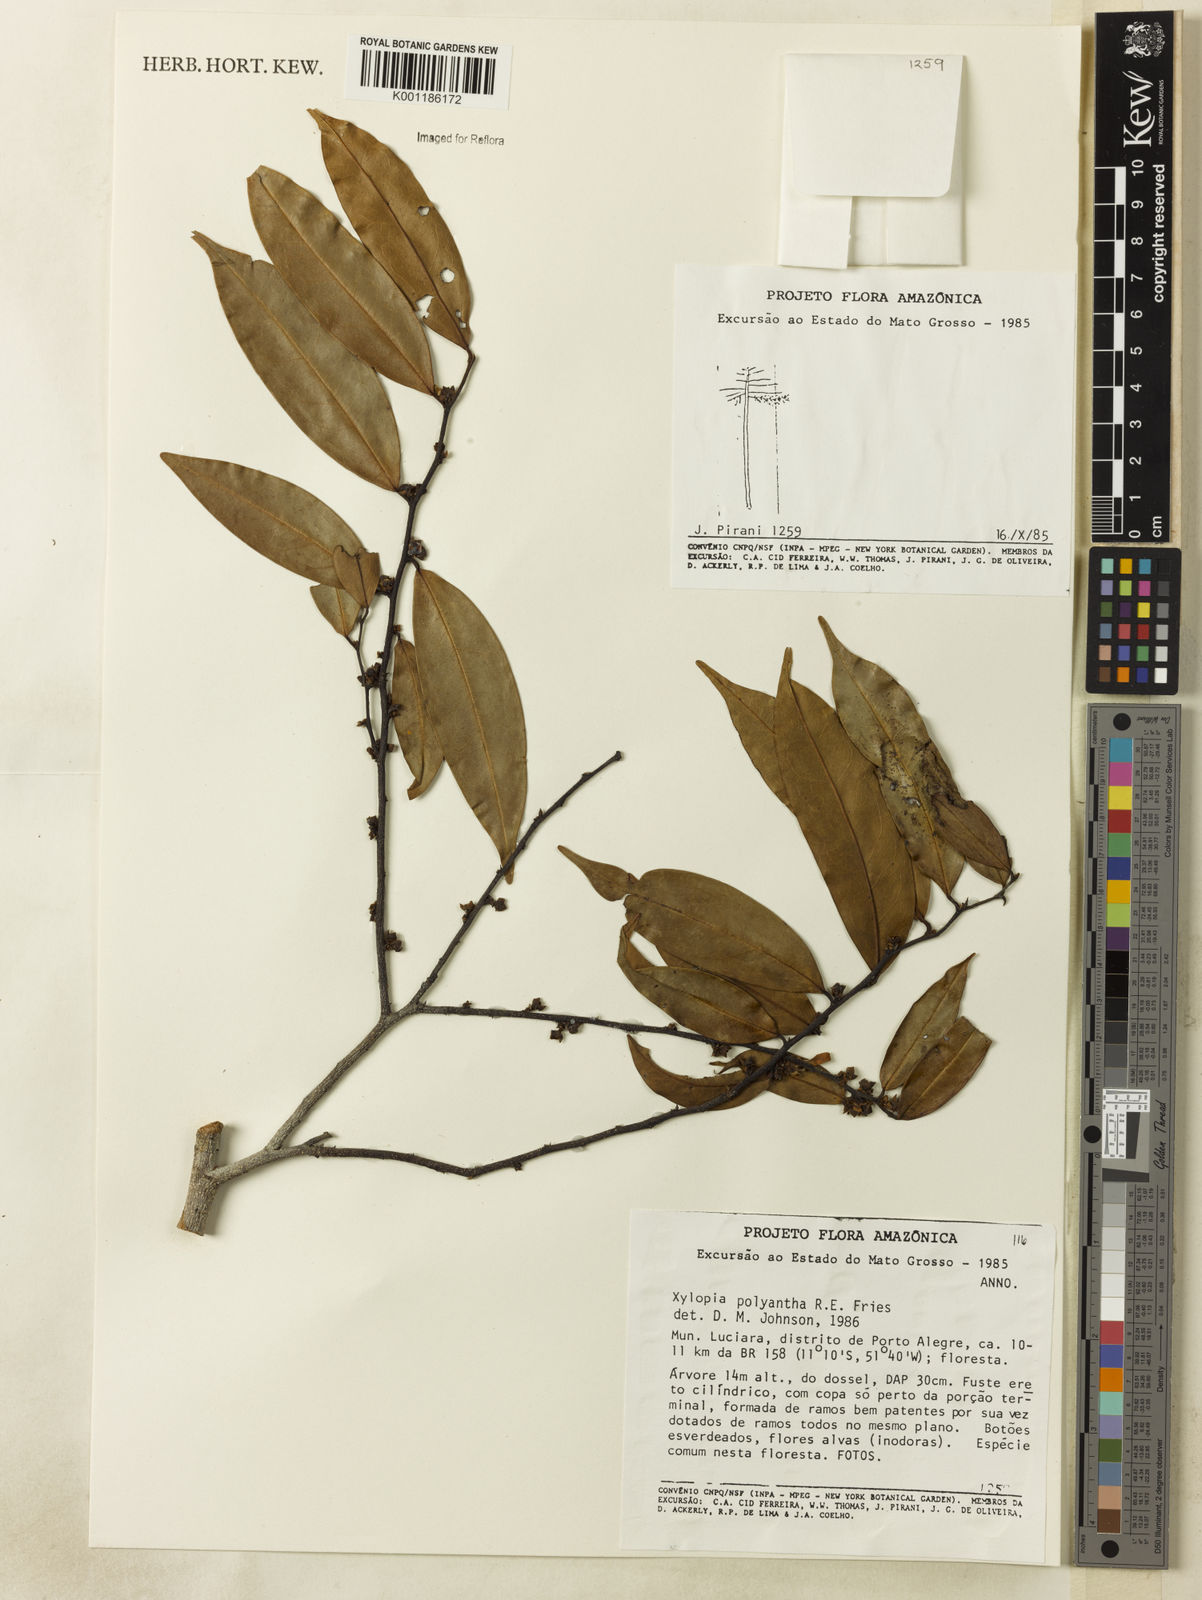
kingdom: Plantae
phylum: Tracheophyta
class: Magnoliopsida
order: Magnoliales
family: Annonaceae
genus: Xylopia
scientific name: Xylopia polyantha
